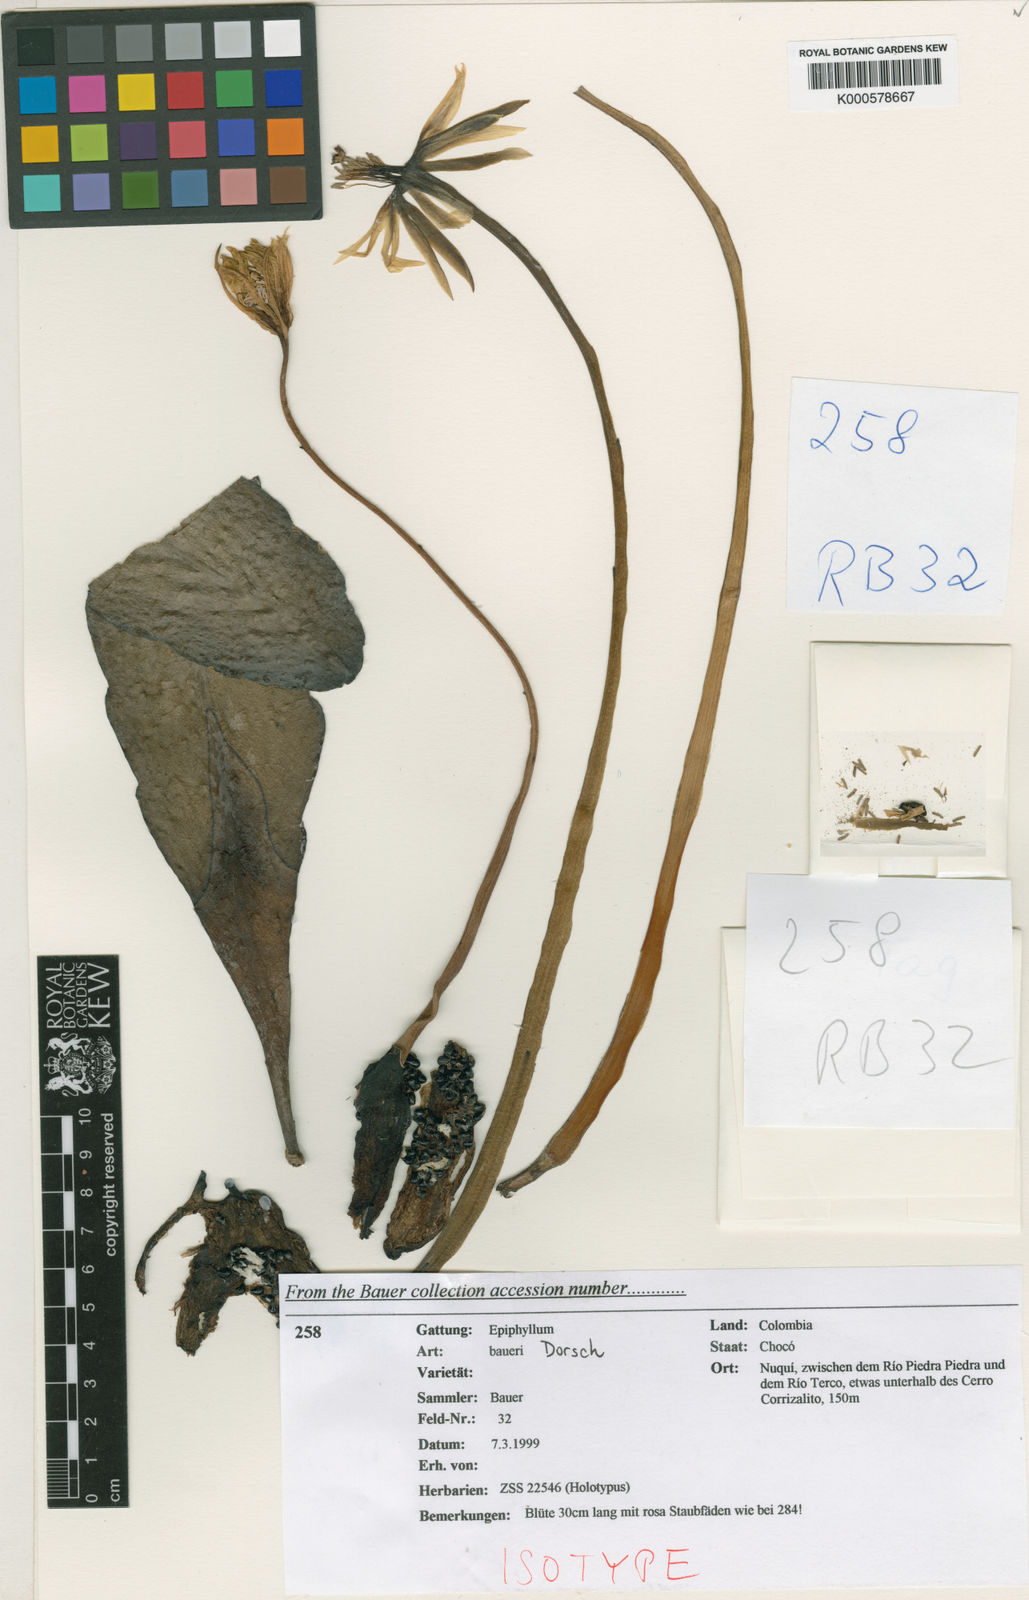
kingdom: Plantae
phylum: Tracheophyta
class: Magnoliopsida
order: Caryophyllales
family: Cactaceae
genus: Epiphyllum
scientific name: Epiphyllum baueri
